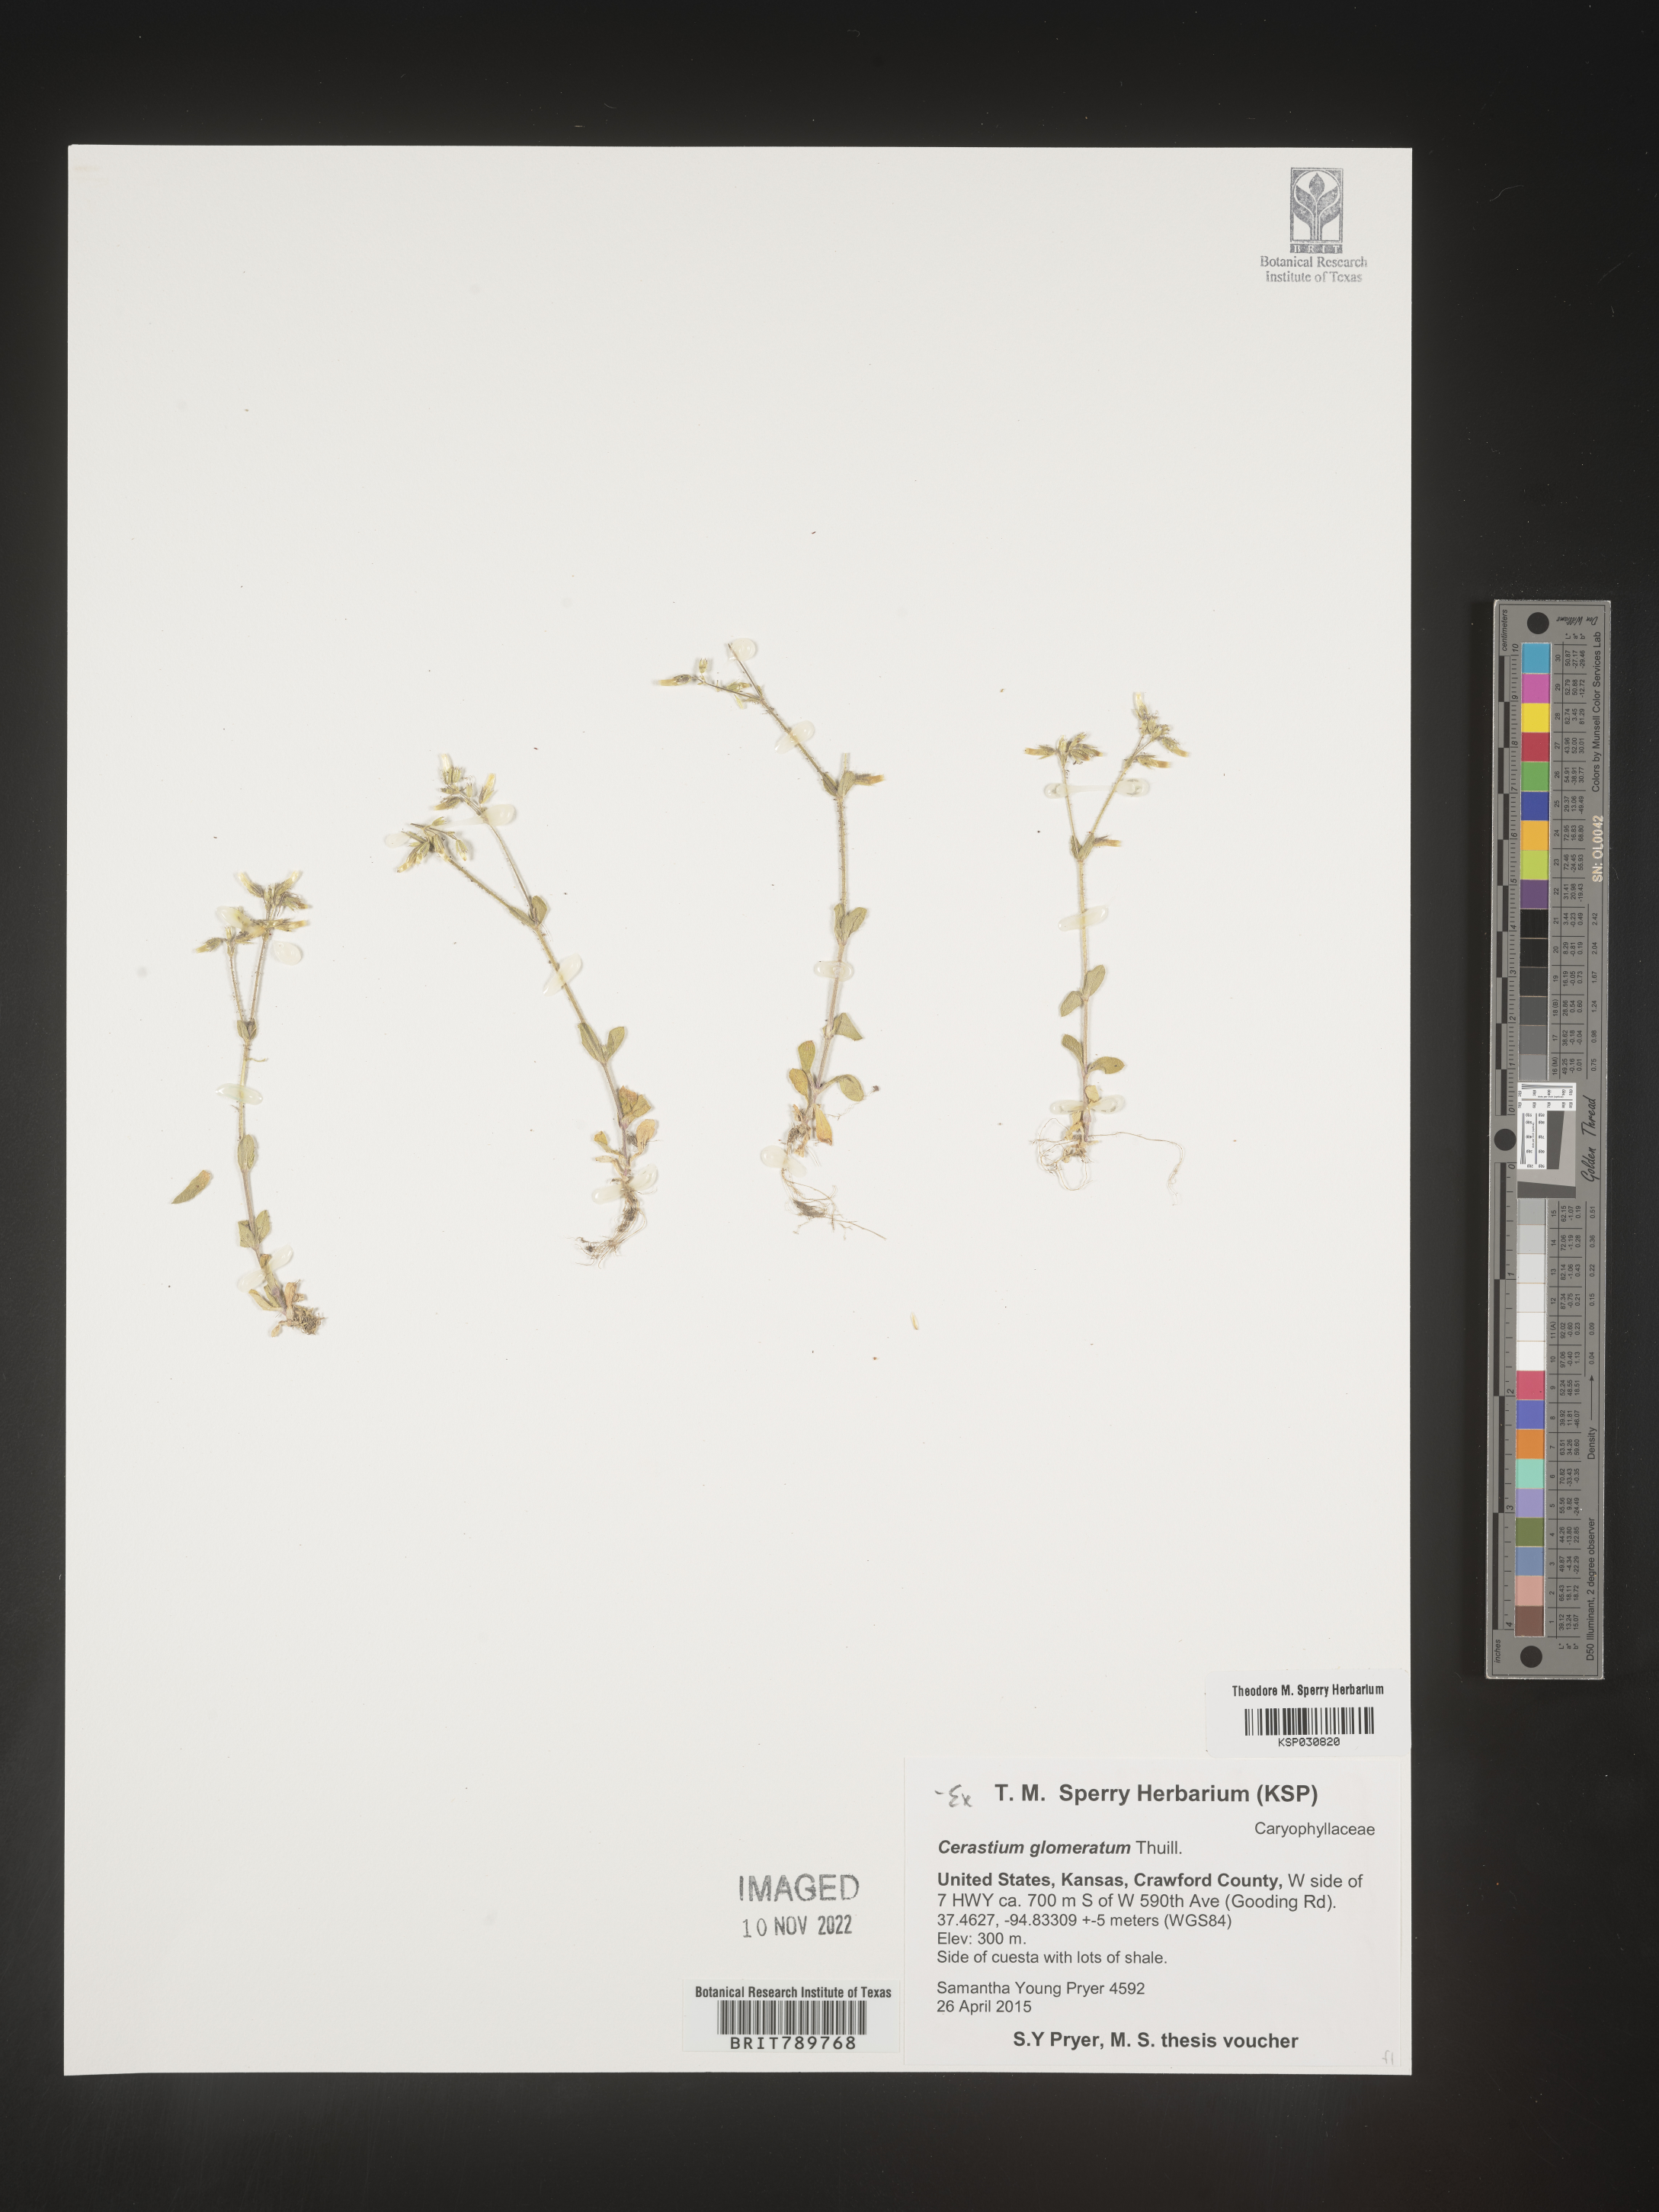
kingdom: Plantae
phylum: Tracheophyta
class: Magnoliopsida
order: Caryophyllales
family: Caryophyllaceae
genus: Cerastium
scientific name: Cerastium glomeratum
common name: Sticky chickweed
